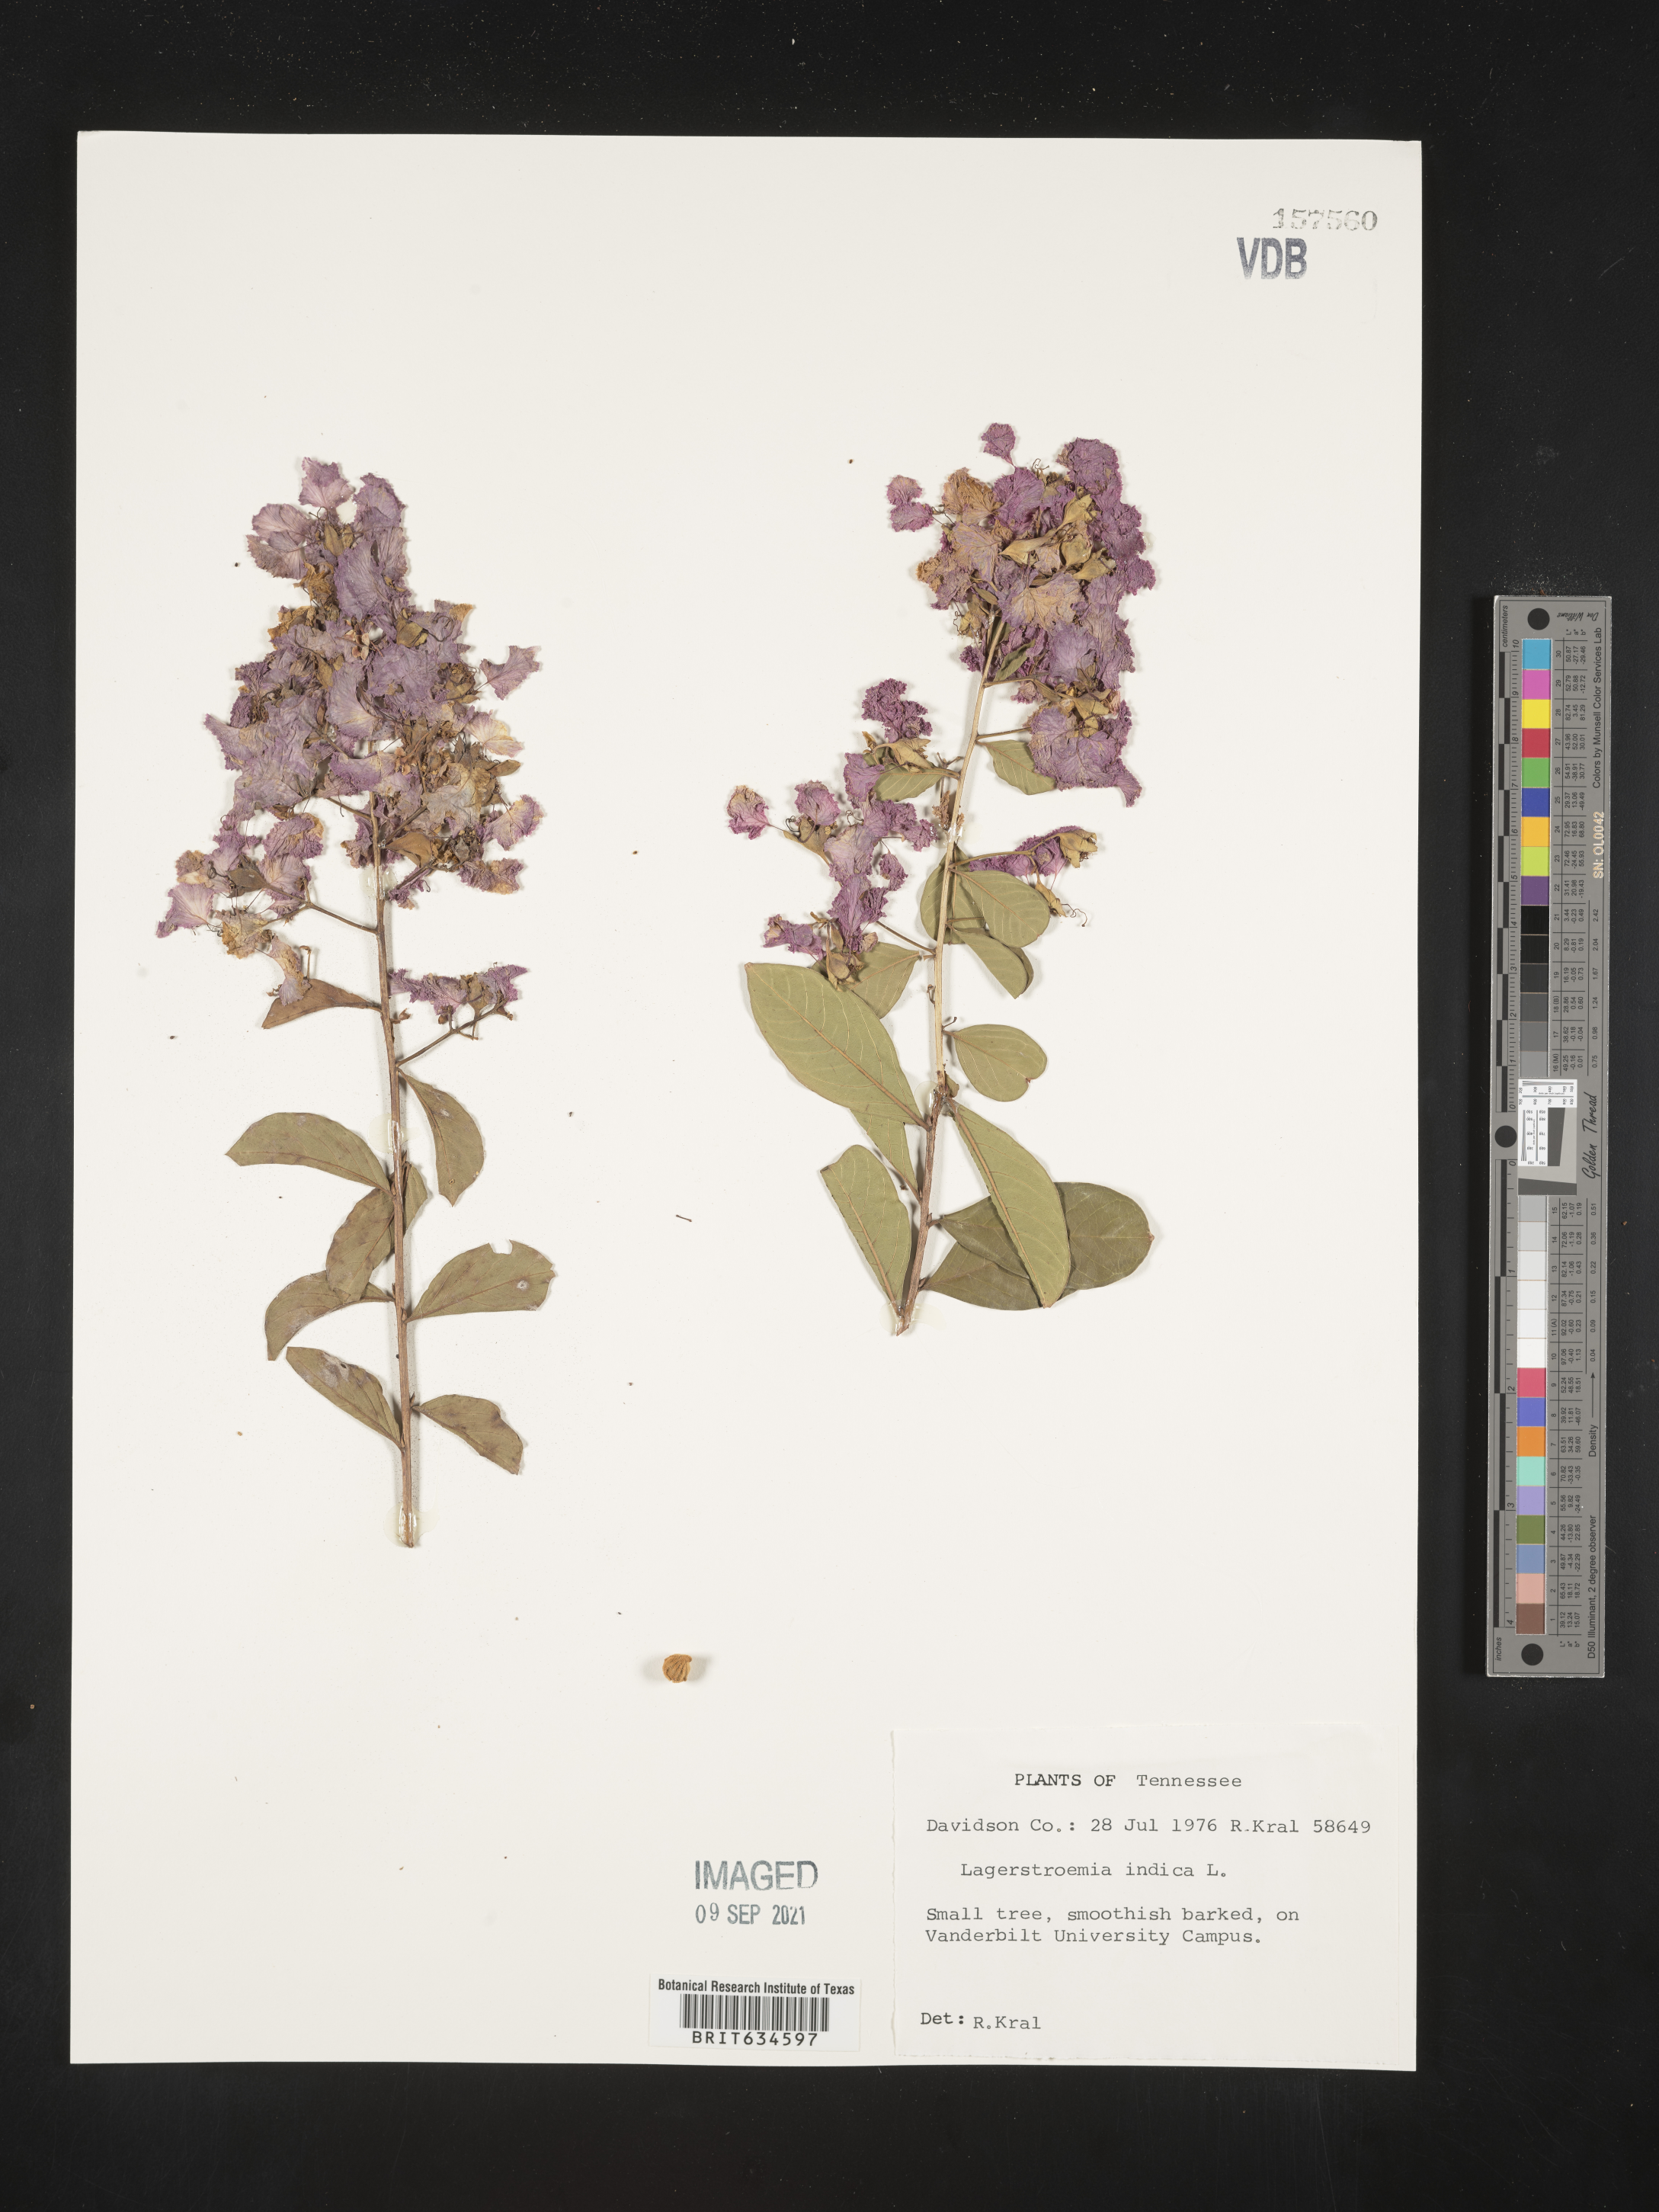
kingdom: Plantae
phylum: Tracheophyta
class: Magnoliopsida
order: Myrtales
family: Lythraceae
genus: Lagerstroemia
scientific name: Lagerstroemia
